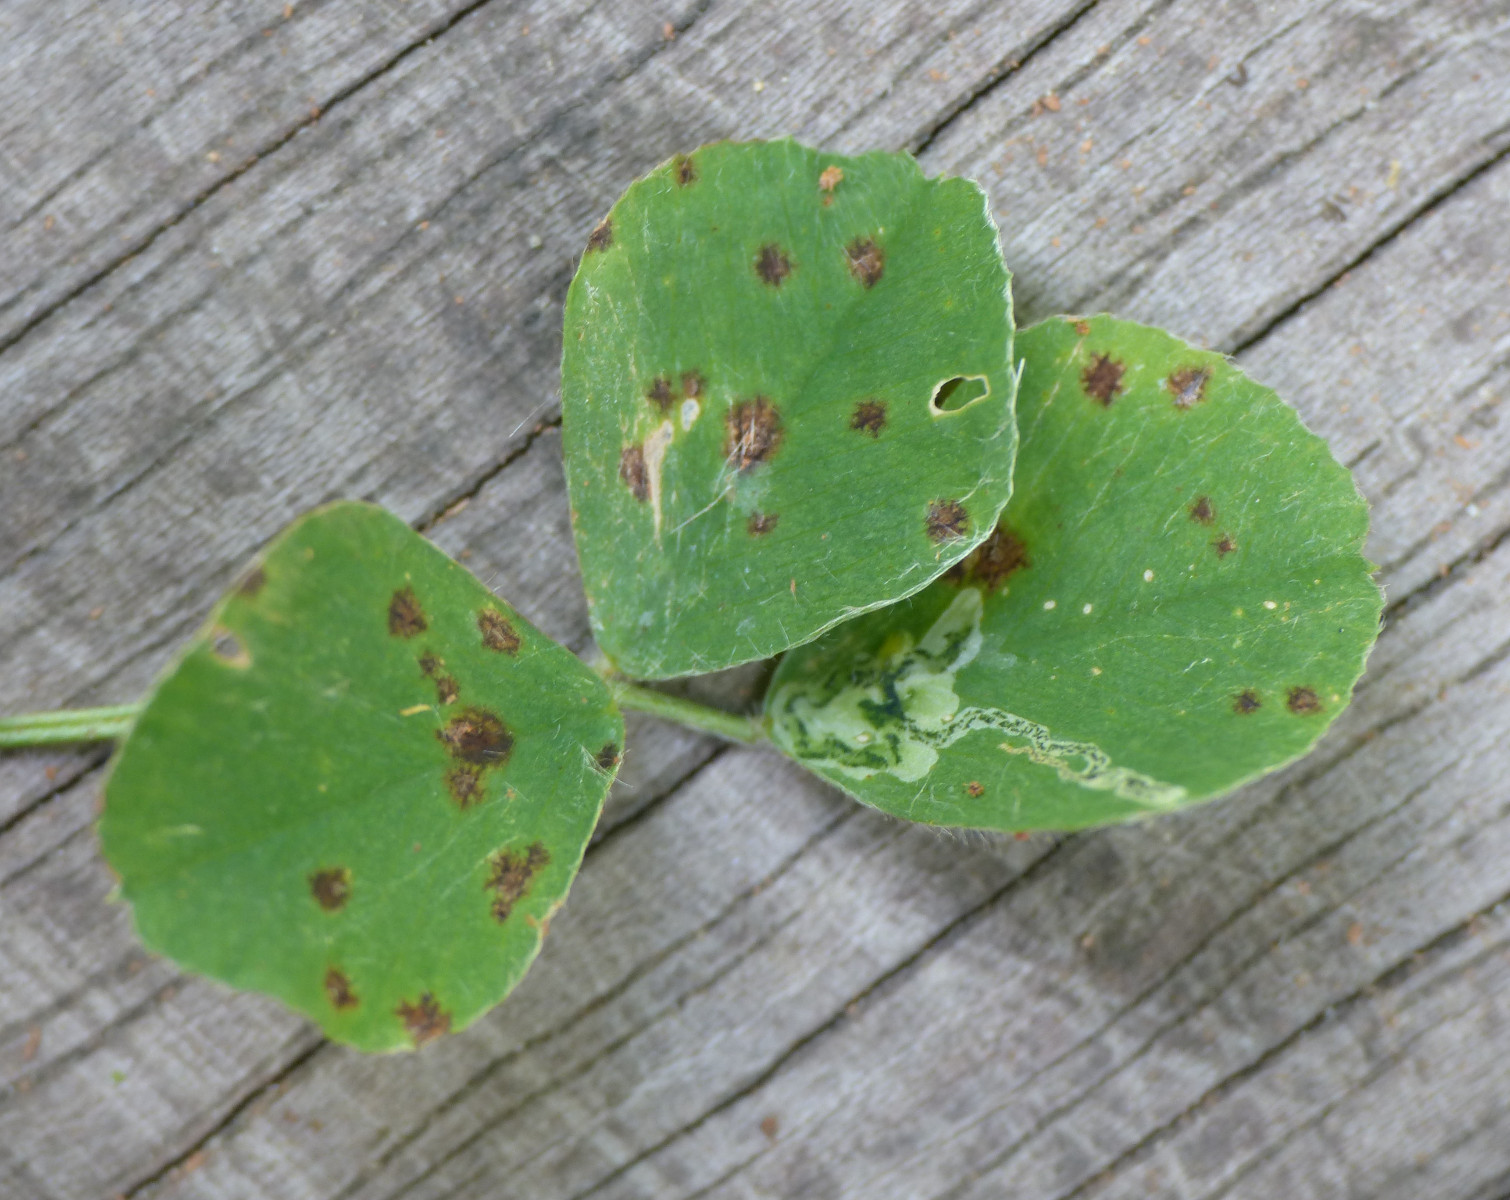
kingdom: Fungi
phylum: Ascomycota
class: Leotiomycetes
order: Helotiales
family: Drepanopezizaceae
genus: Pseudopeziza
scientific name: Pseudopeziza medicaginis
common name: sneglebælg-bladskive
